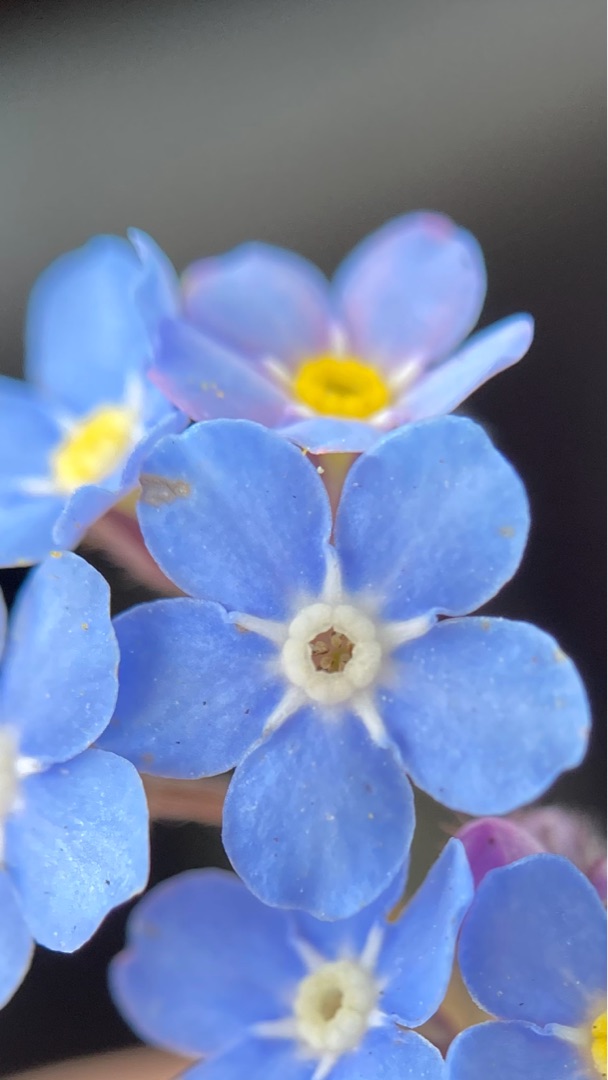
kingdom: Plantae
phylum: Tracheophyta
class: Magnoliopsida
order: Boraginales
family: Boraginaceae
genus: Myosotis
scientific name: Myosotis sylvatica
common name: Skov-forglemmigej
